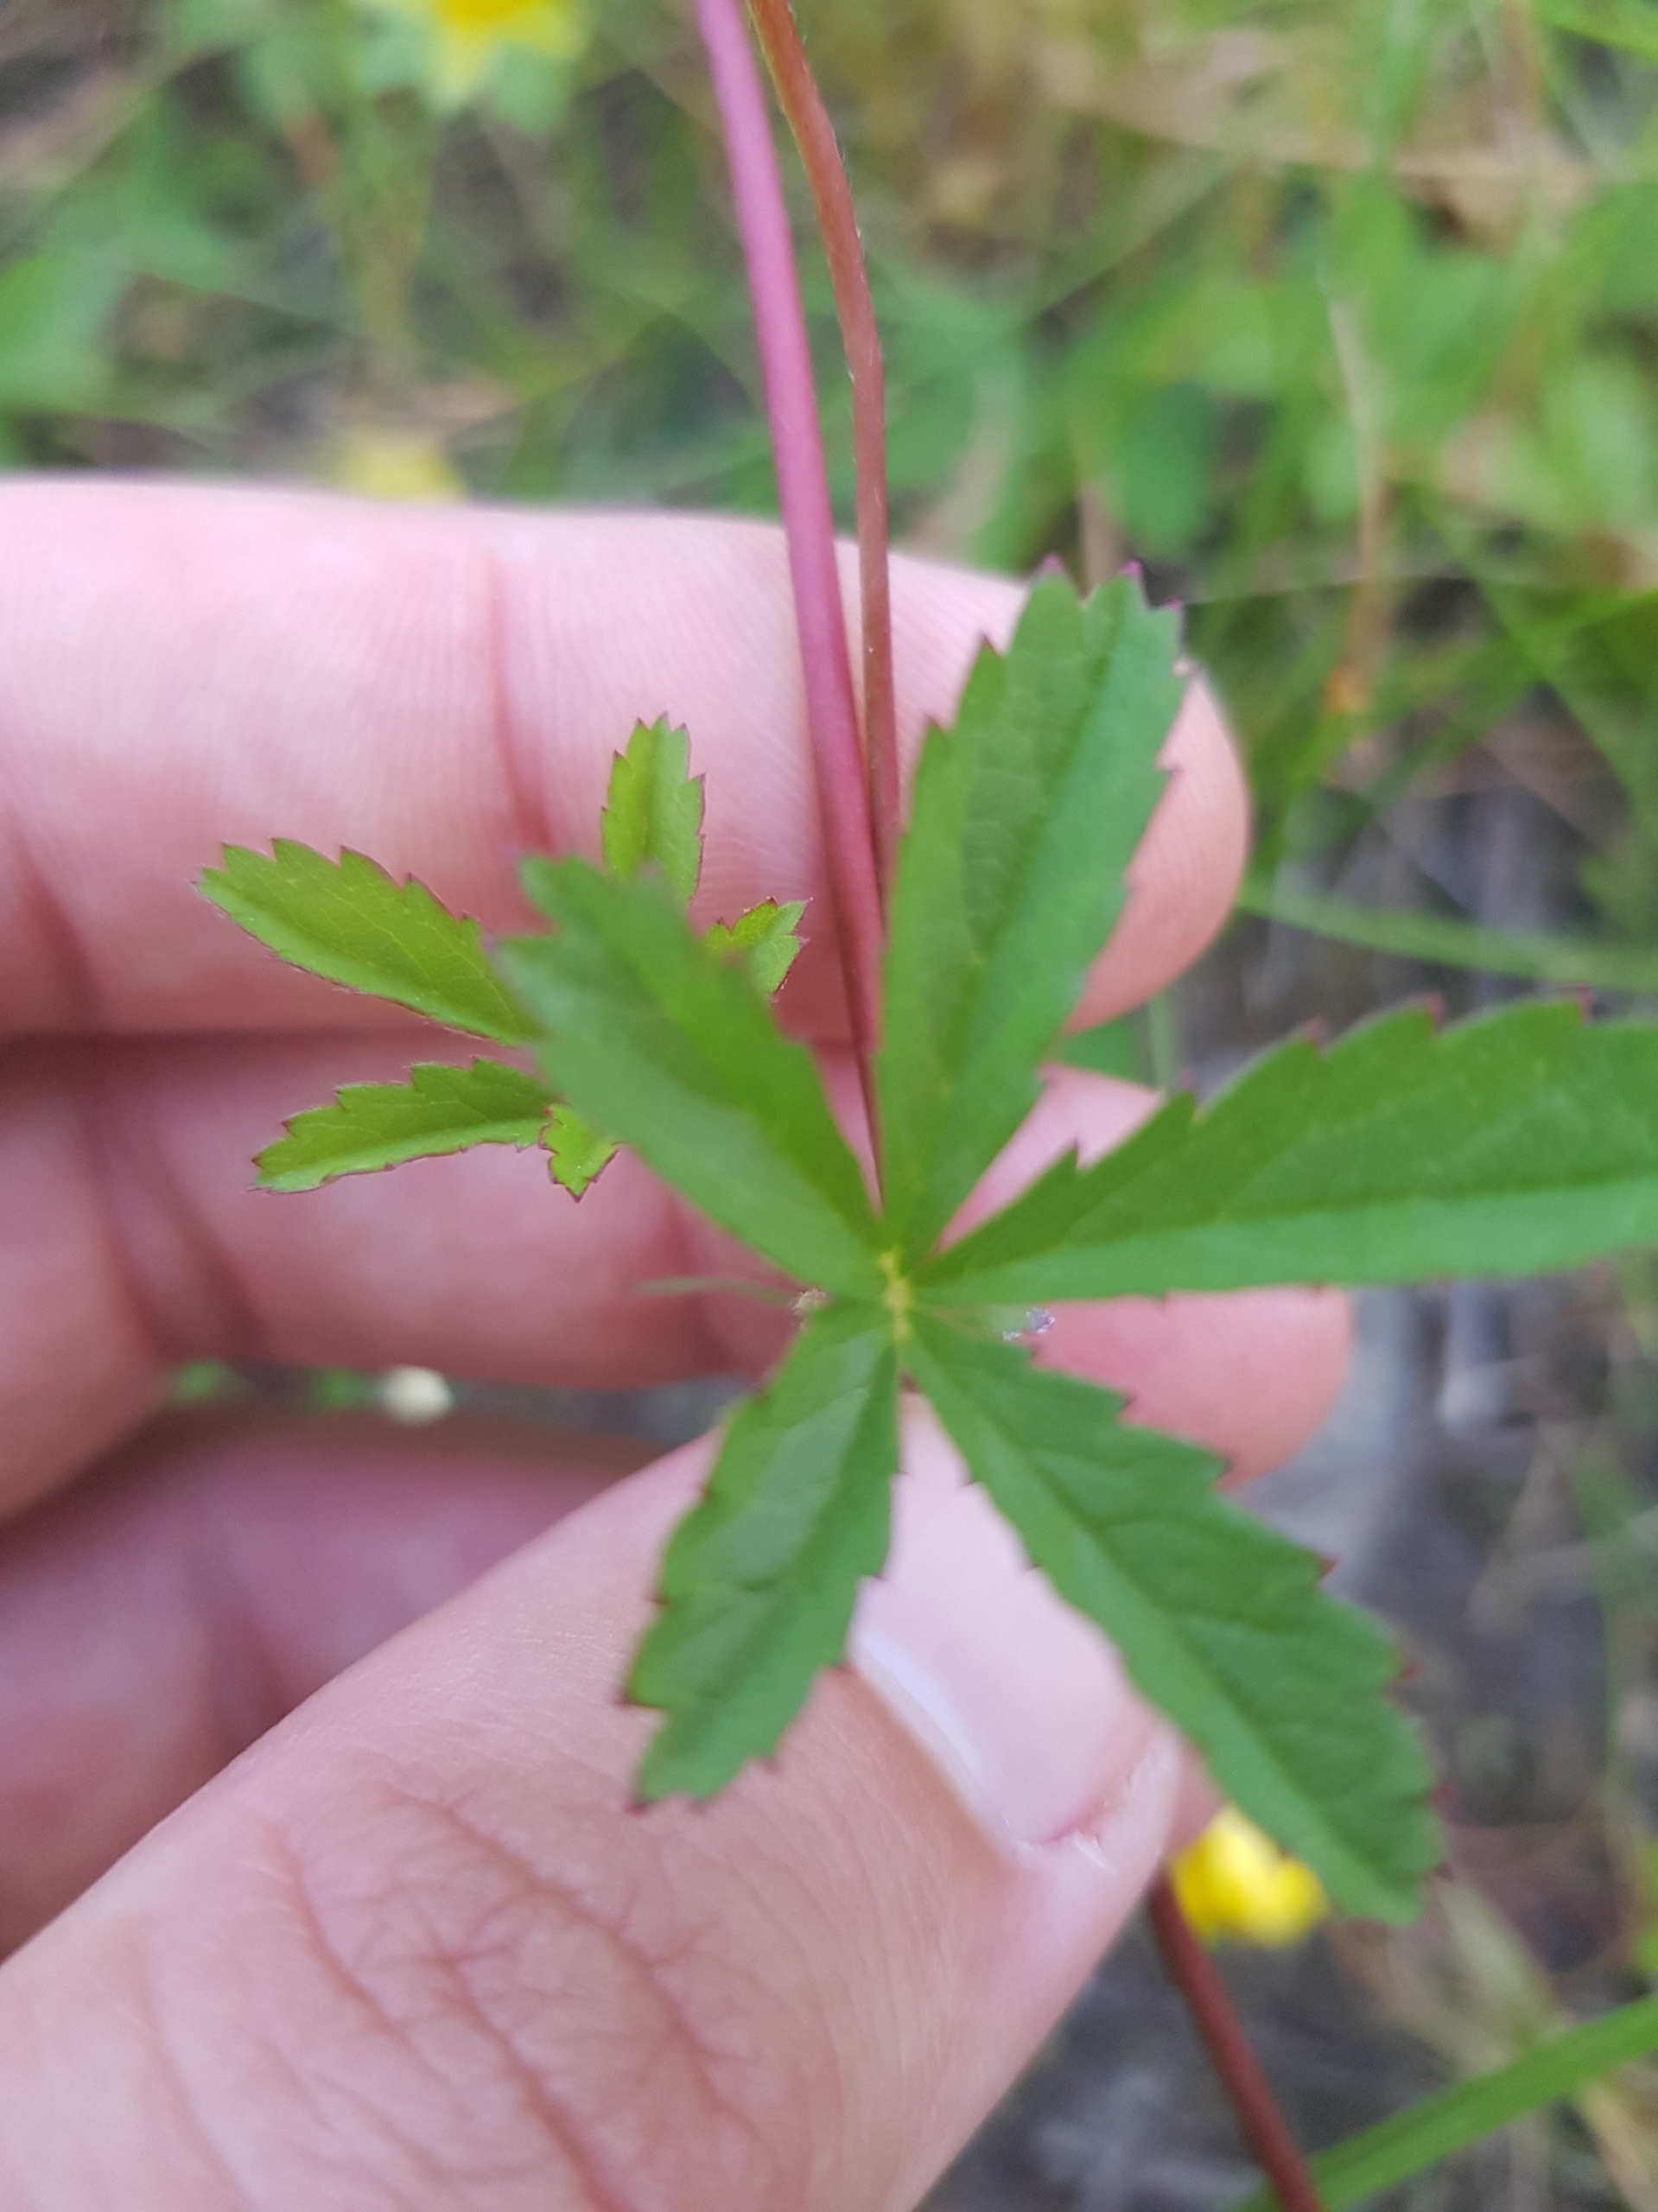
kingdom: Plantae
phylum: Tracheophyta
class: Magnoliopsida
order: Rosales
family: Rosaceae
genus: Potentilla
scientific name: Potentilla reptans
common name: Krybende potentil
